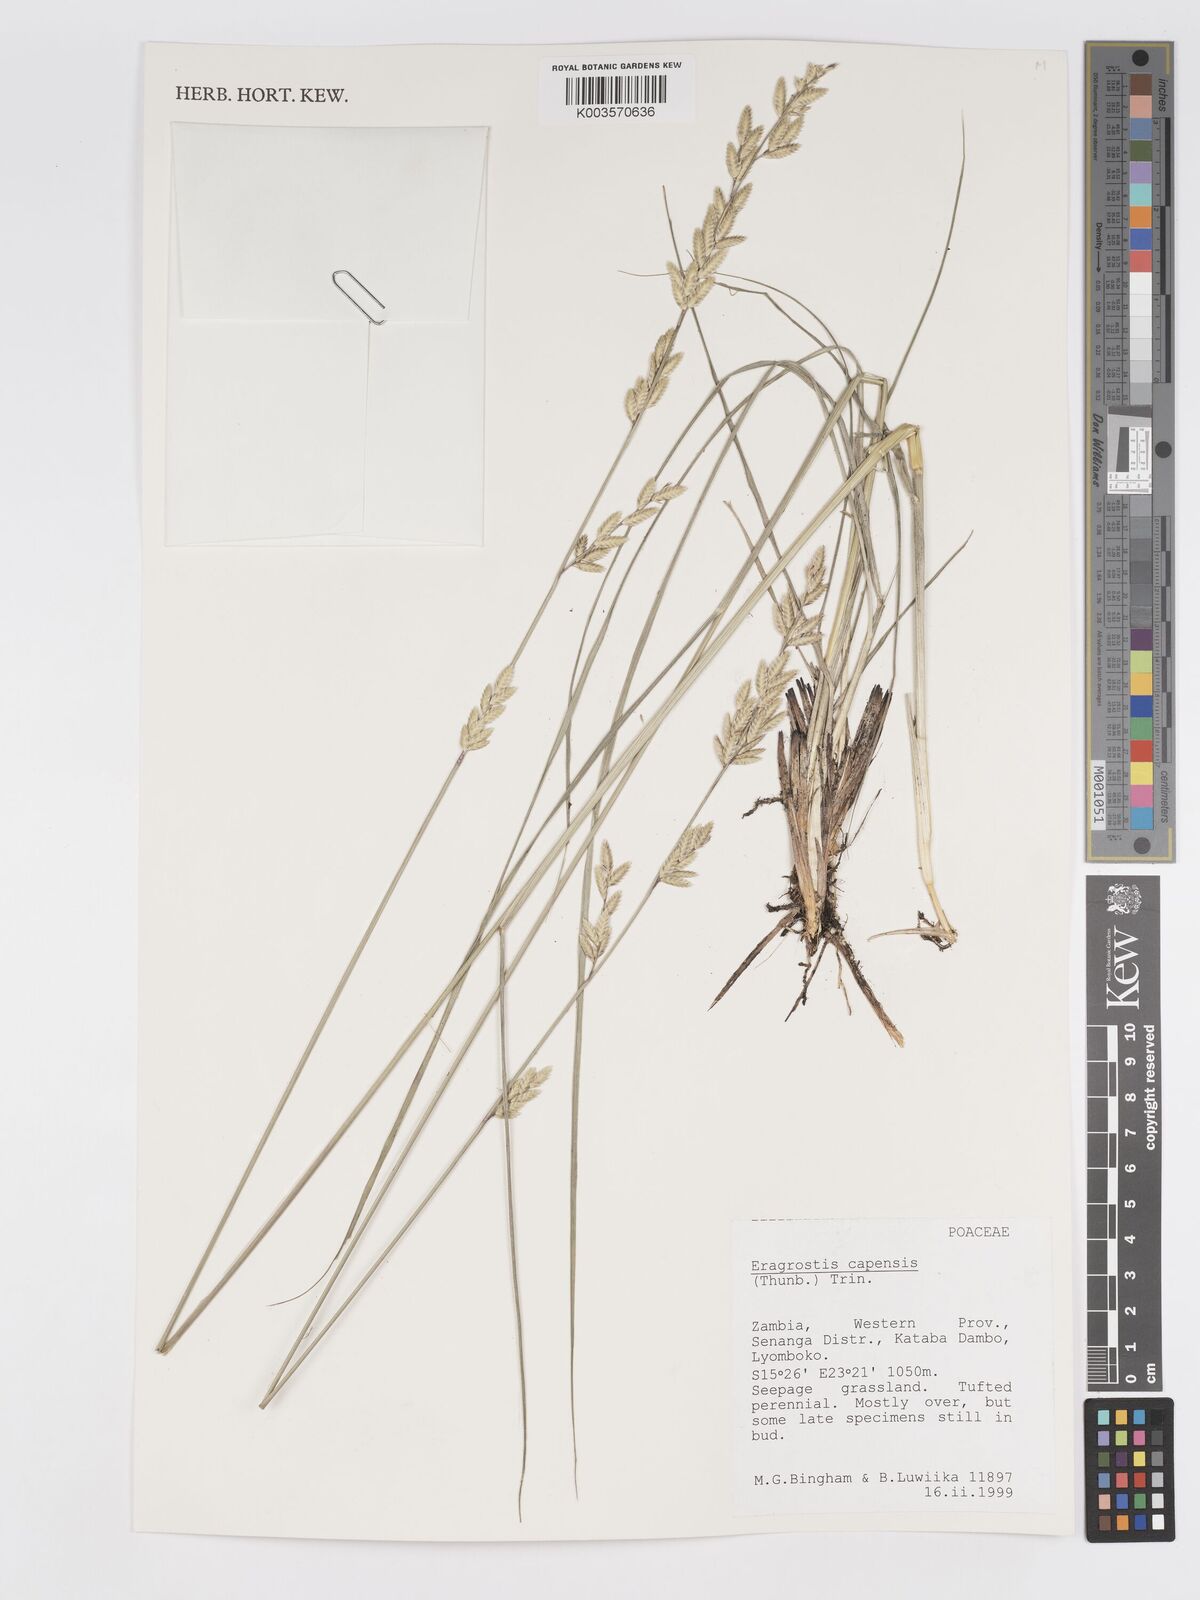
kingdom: Plantae
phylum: Tracheophyta
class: Liliopsida
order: Poales
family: Poaceae
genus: Eragrostis
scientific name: Eragrostis capensis
